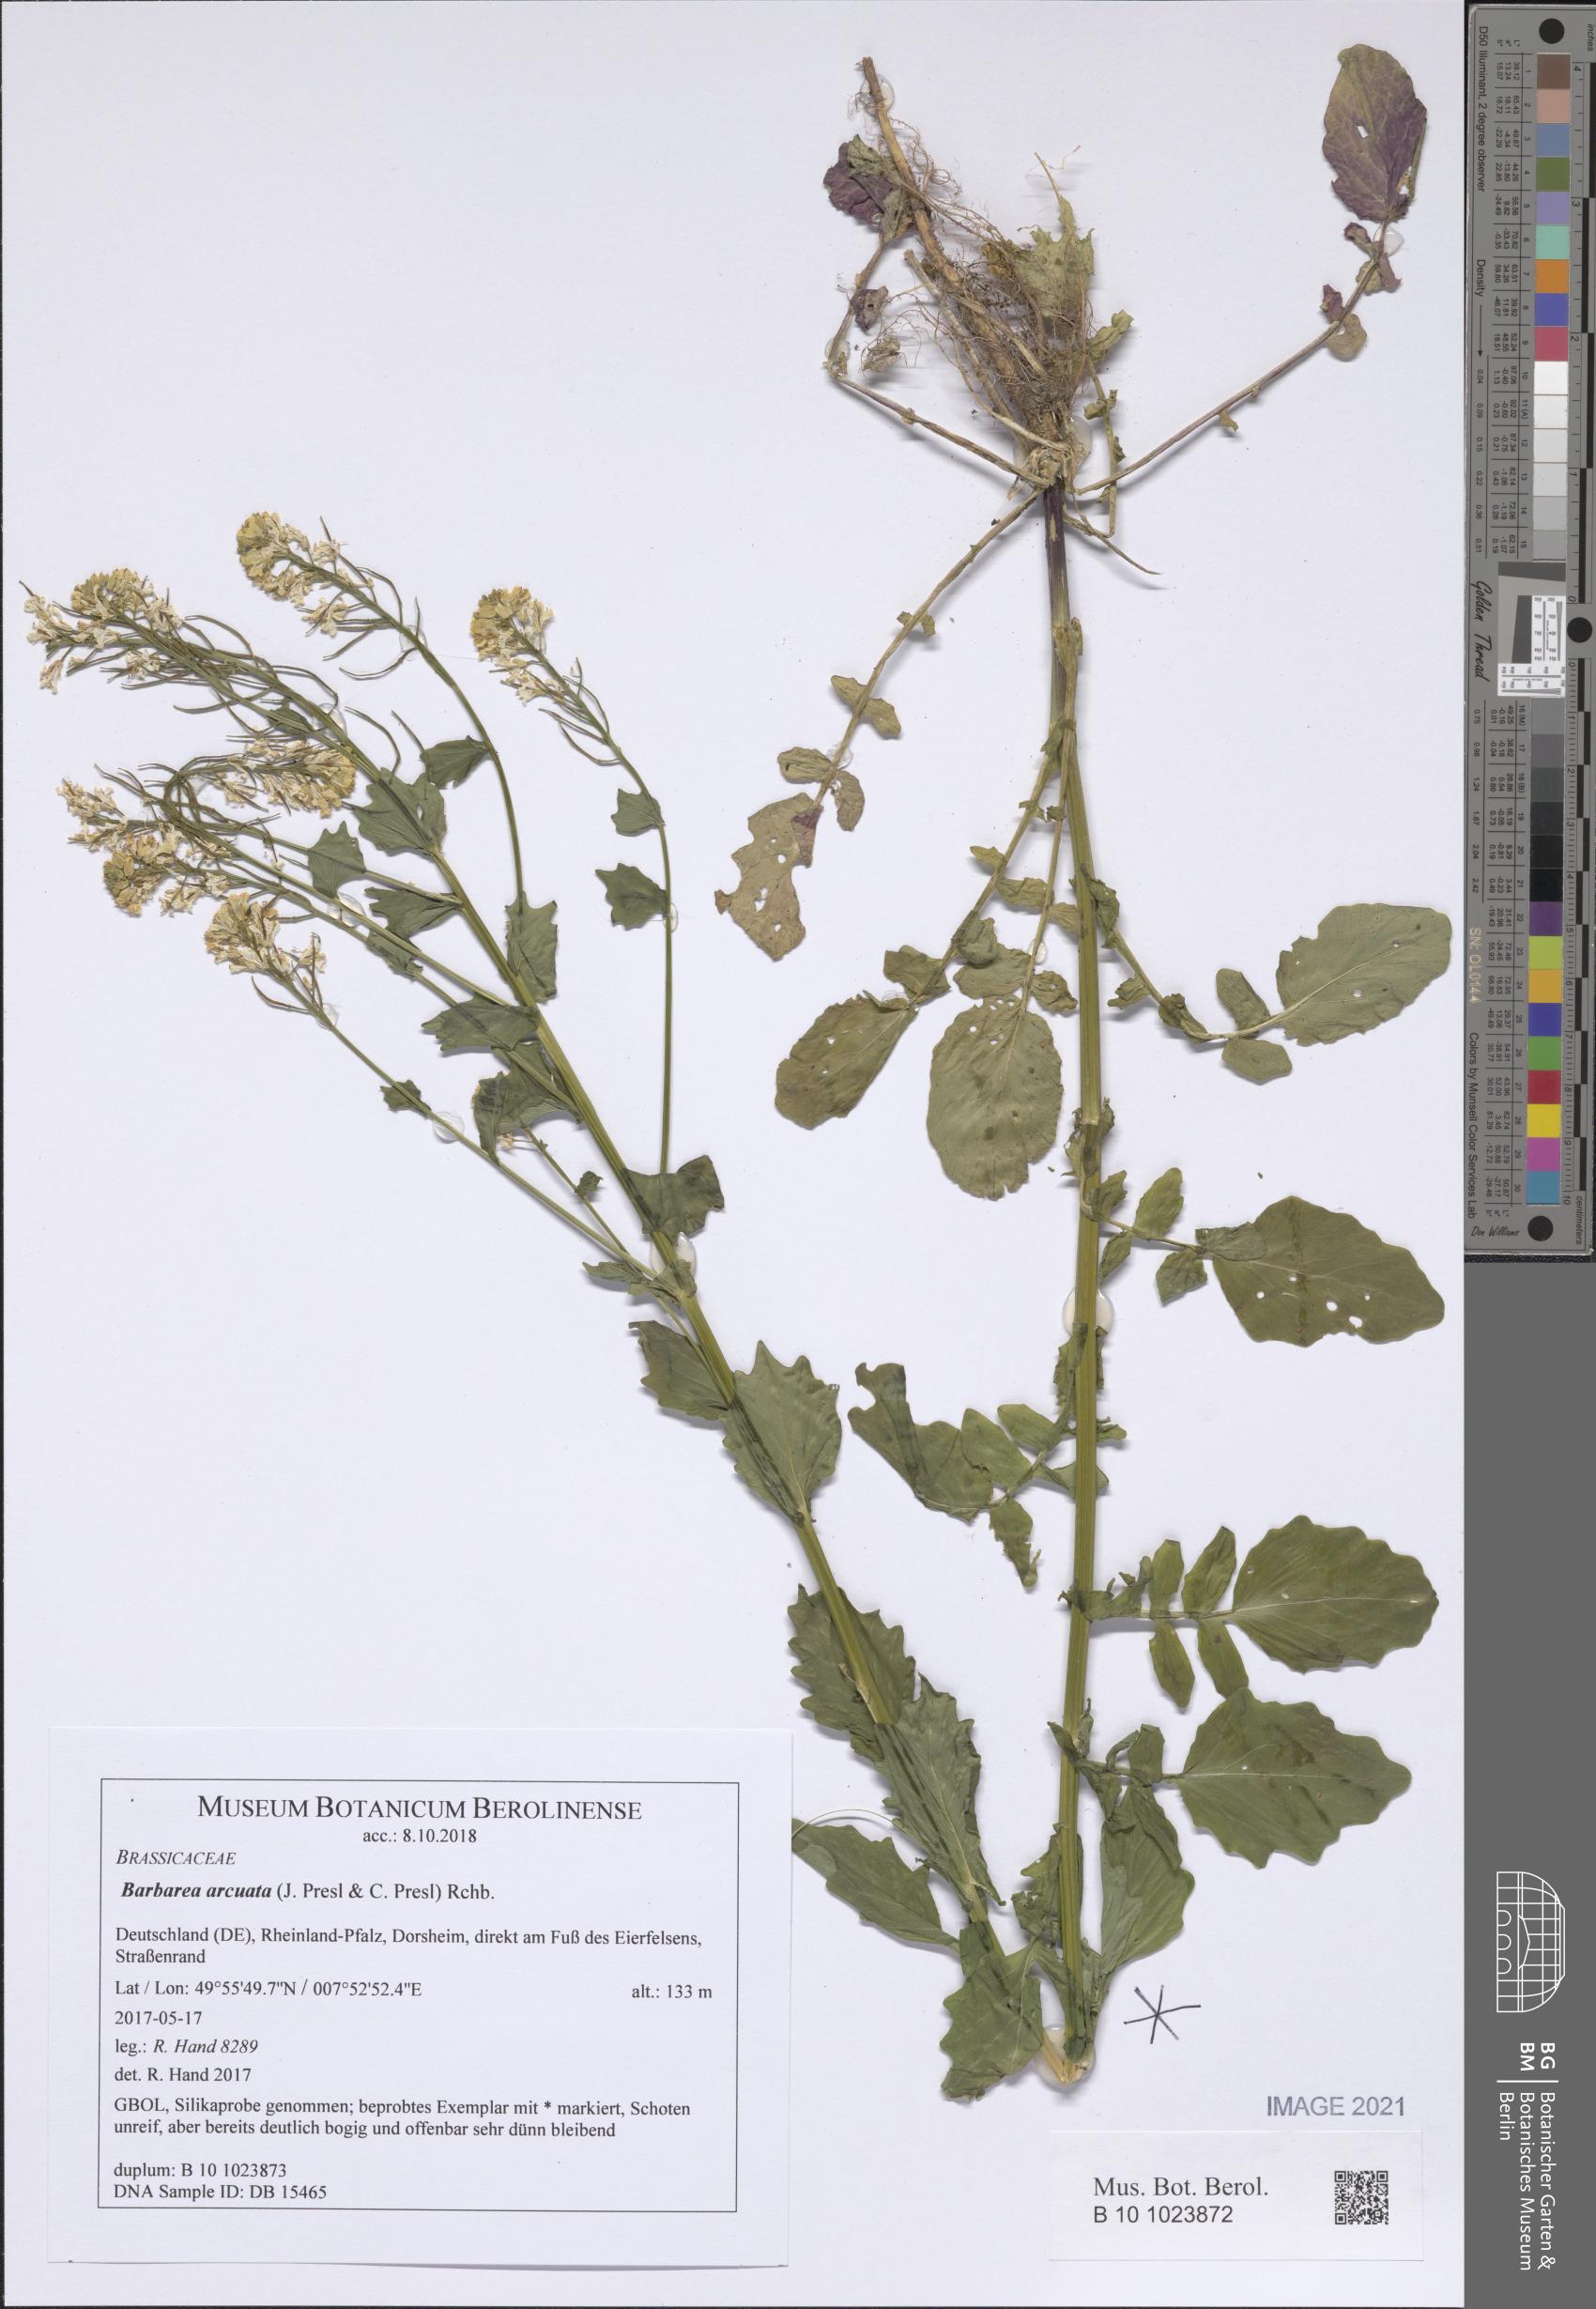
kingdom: Plantae
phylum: Tracheophyta
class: Magnoliopsida
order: Brassicales
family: Brassicaceae
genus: Barbarea
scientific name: Barbarea vulgaris
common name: Cressy-greens
